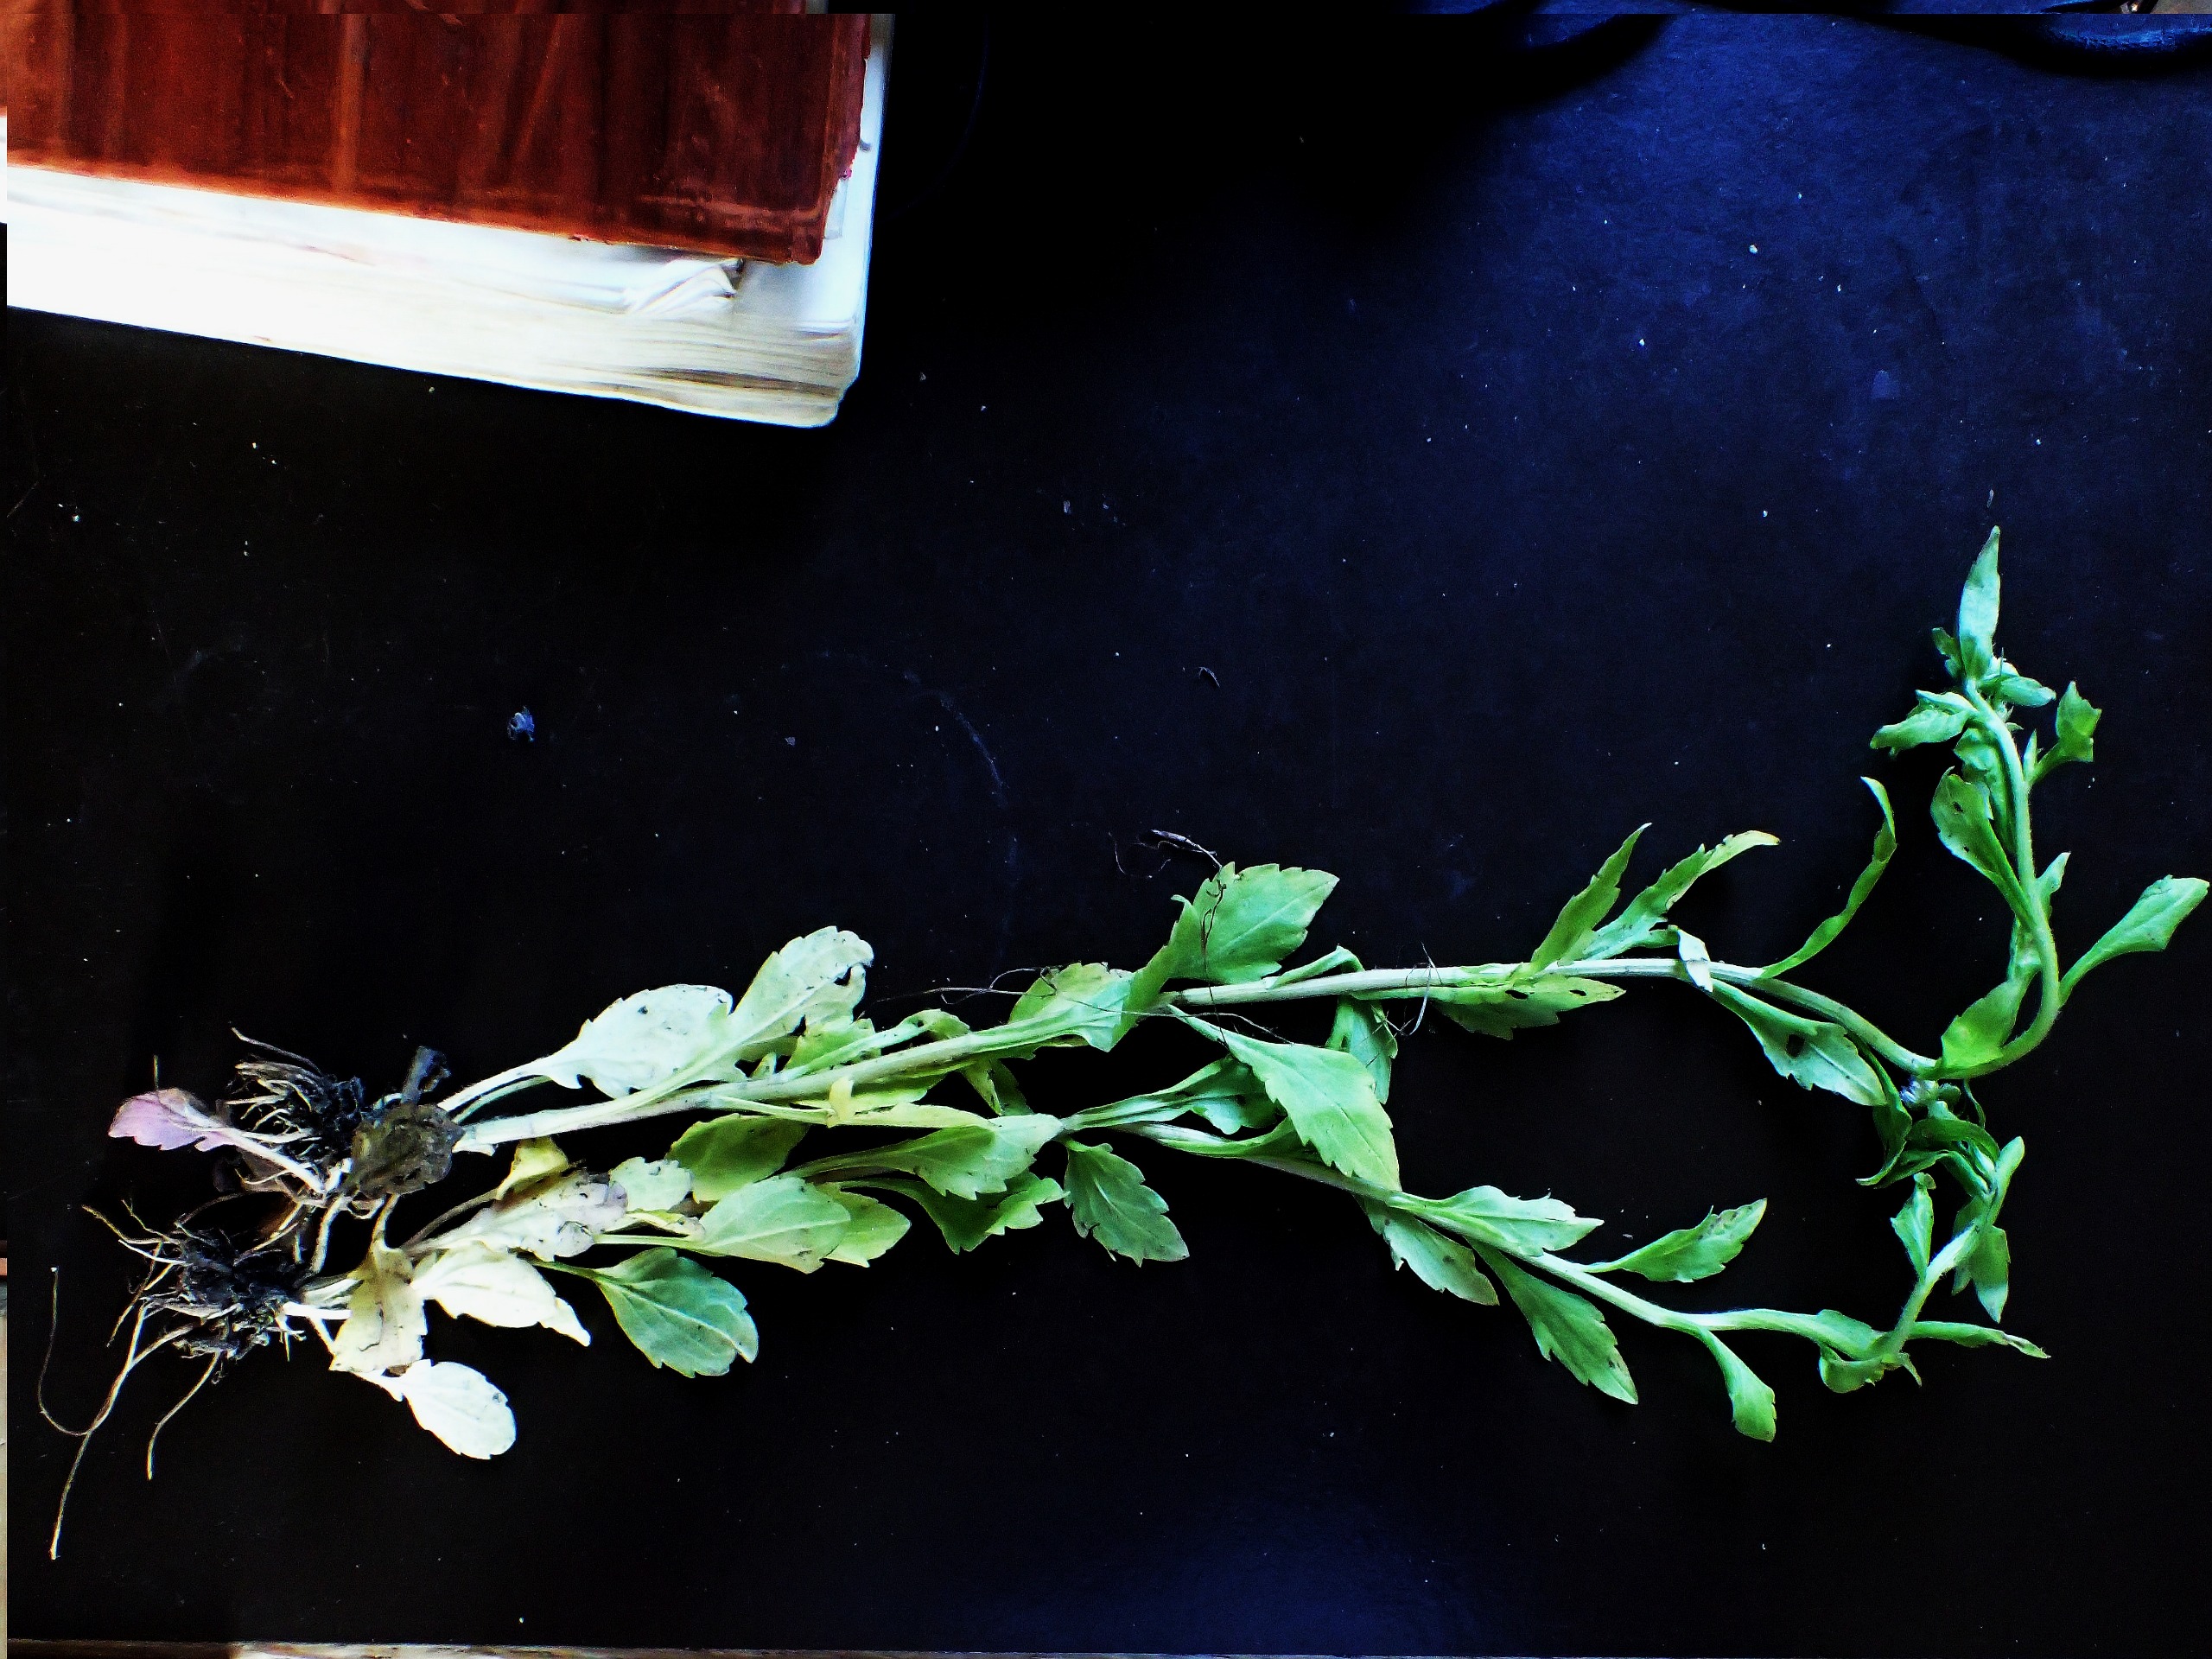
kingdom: Plantae
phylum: Tracheophyta
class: Magnoliopsida
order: Asterales
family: Asteraceae
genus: Erigeron
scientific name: Erigeron strigosus
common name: Hvid smalstråle
